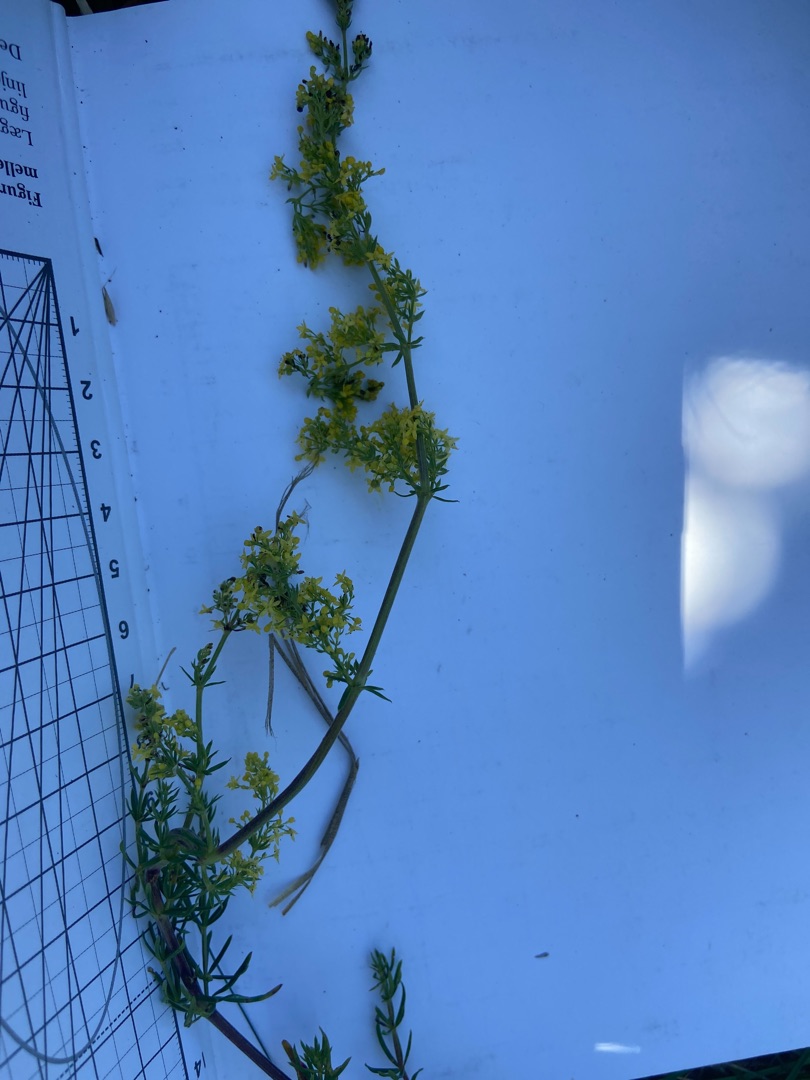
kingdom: Plantae
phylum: Tracheophyta
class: Magnoliopsida
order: Gentianales
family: Rubiaceae
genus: Galium
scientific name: Galium verum
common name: Gul snerre
